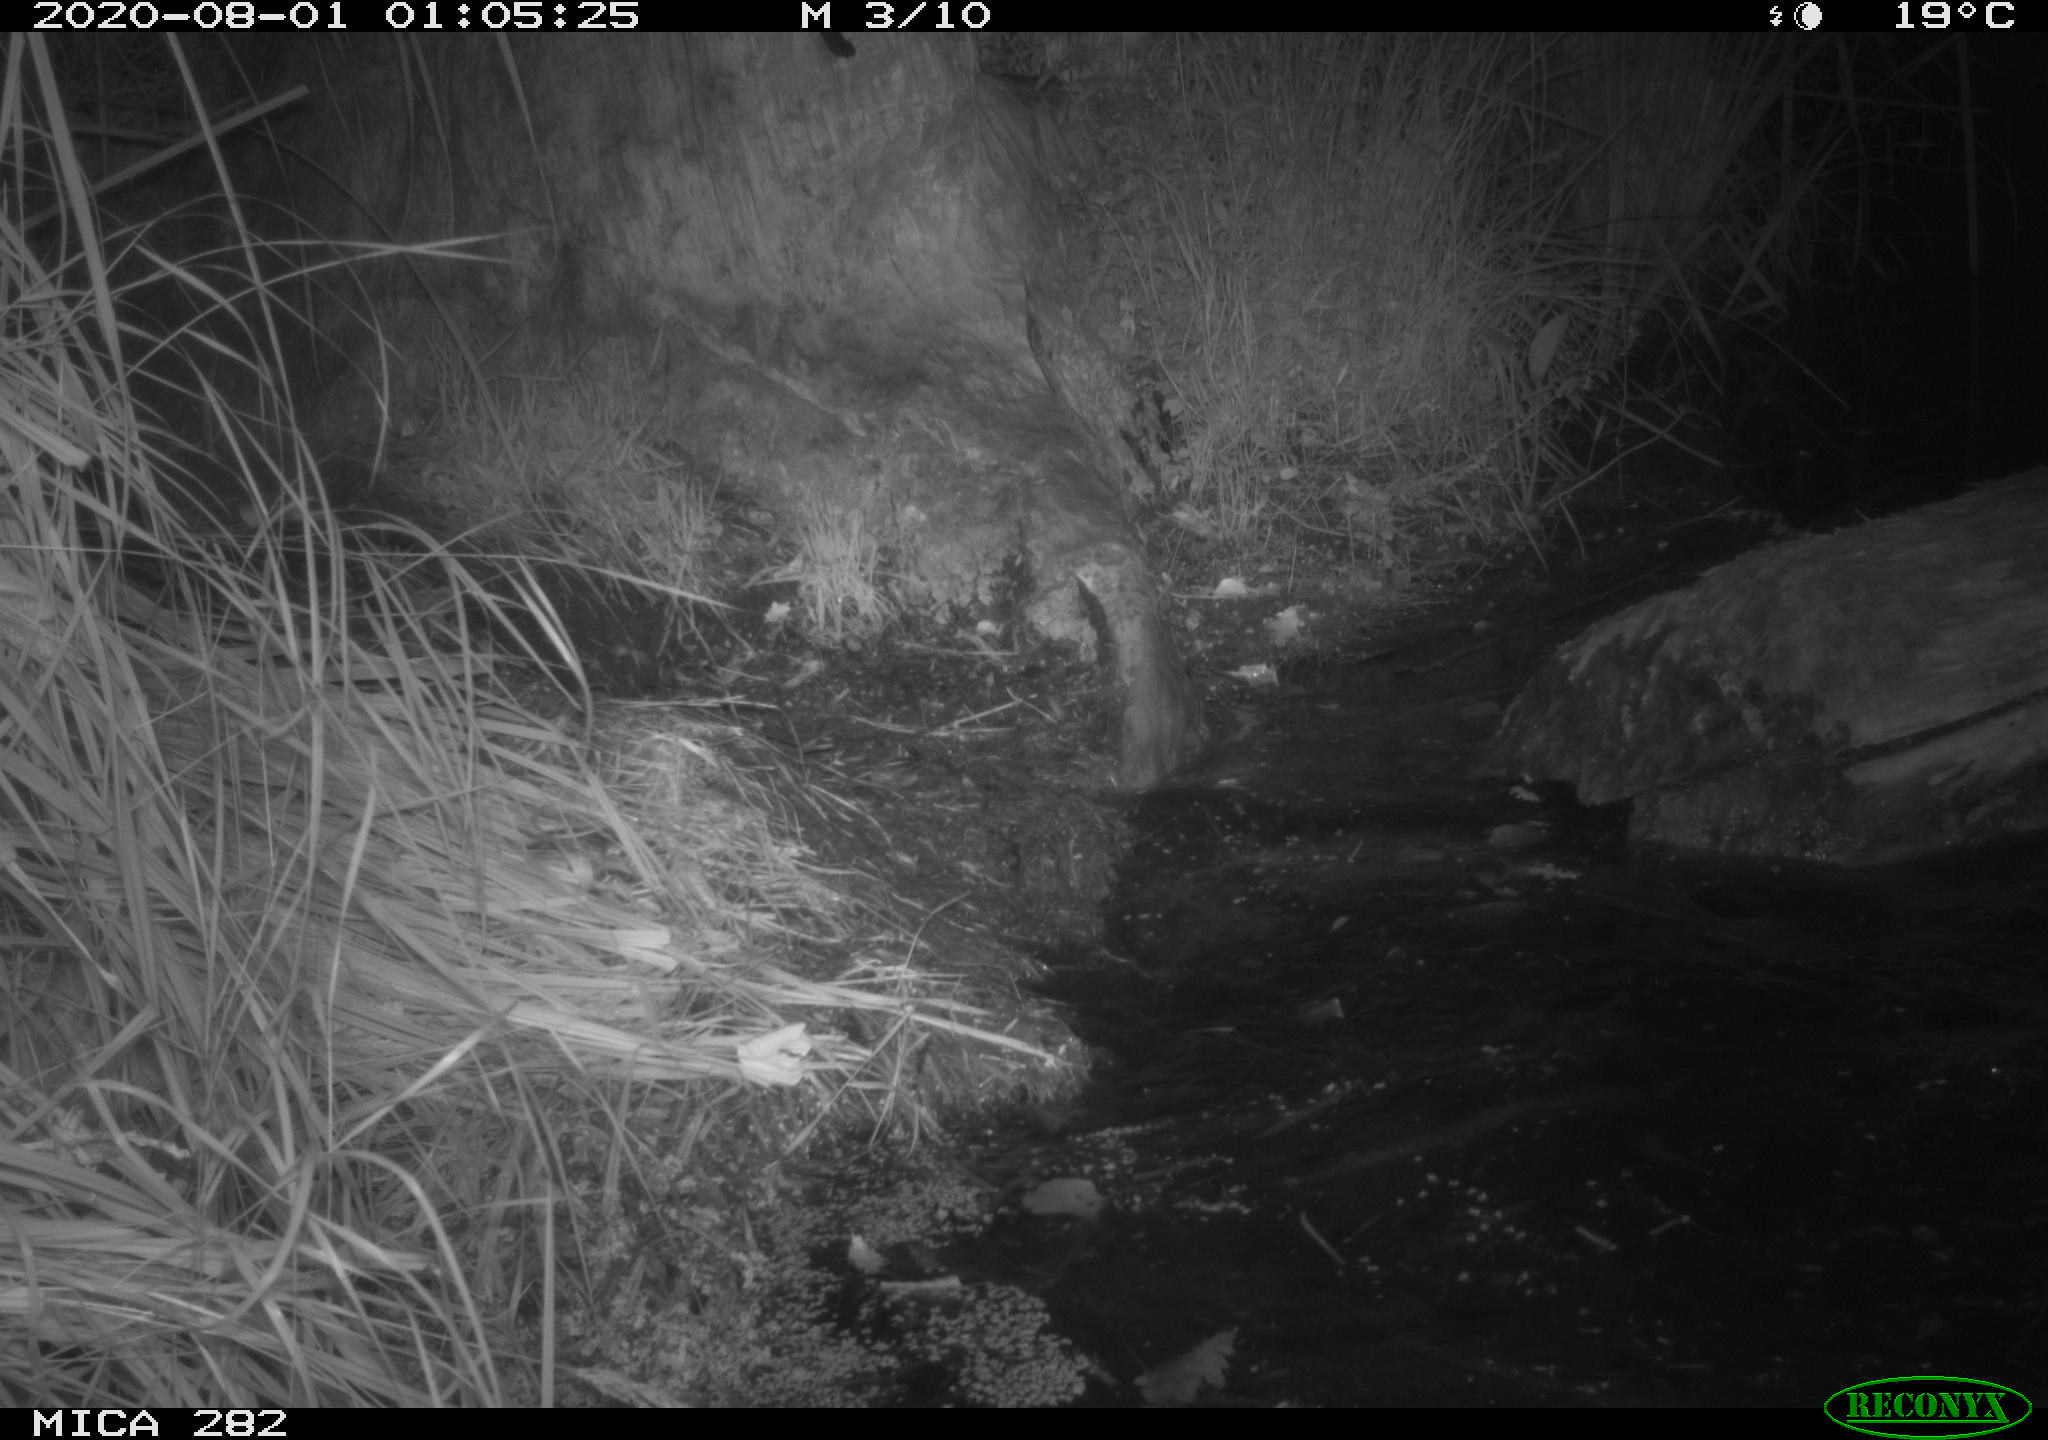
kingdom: Animalia
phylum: Chordata
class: Mammalia
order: Rodentia
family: Castoridae
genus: Castor
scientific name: Castor fiber
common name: Eurasian beaver
